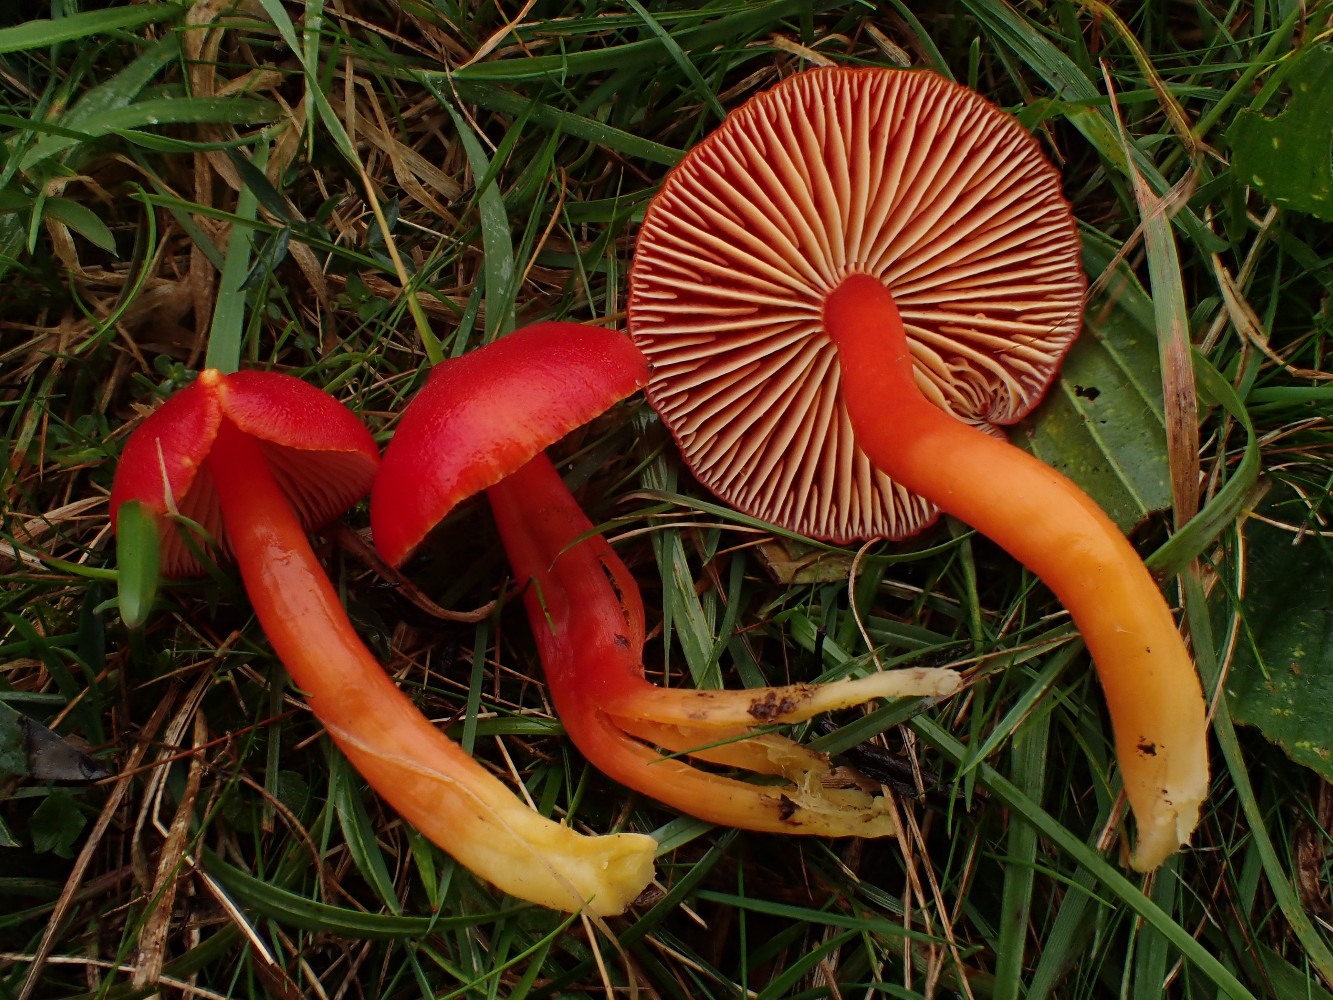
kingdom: Fungi
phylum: Basidiomycota
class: Agaricomycetes
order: Agaricales
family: Hygrophoraceae
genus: Hygrocybe
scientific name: Hygrocybe coccinea
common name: cinnober-vokshat
